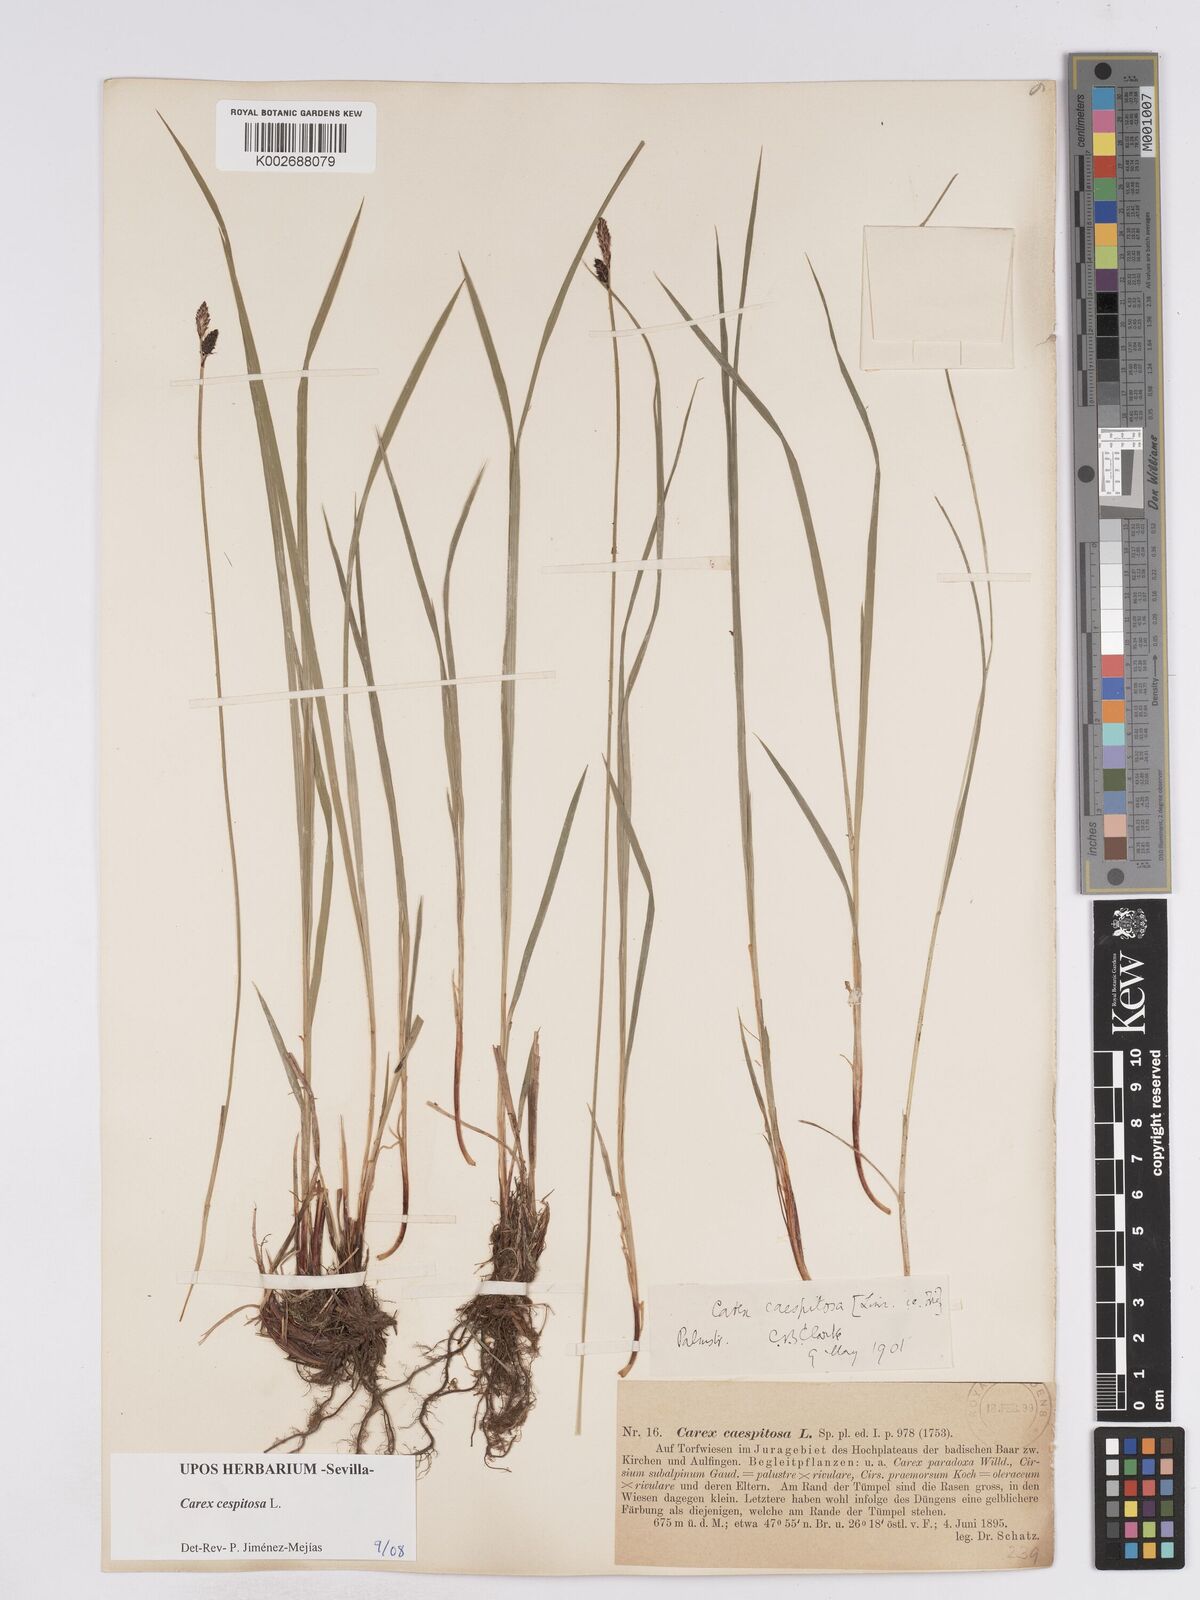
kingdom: Plantae
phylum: Tracheophyta
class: Liliopsida
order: Poales
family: Cyperaceae
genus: Carex
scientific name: Carex
